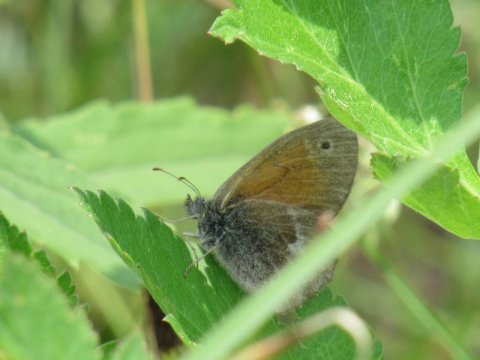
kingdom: Animalia
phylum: Arthropoda
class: Insecta
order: Lepidoptera
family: Nymphalidae
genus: Coenonympha
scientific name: Coenonympha tullia
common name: Large Heath
